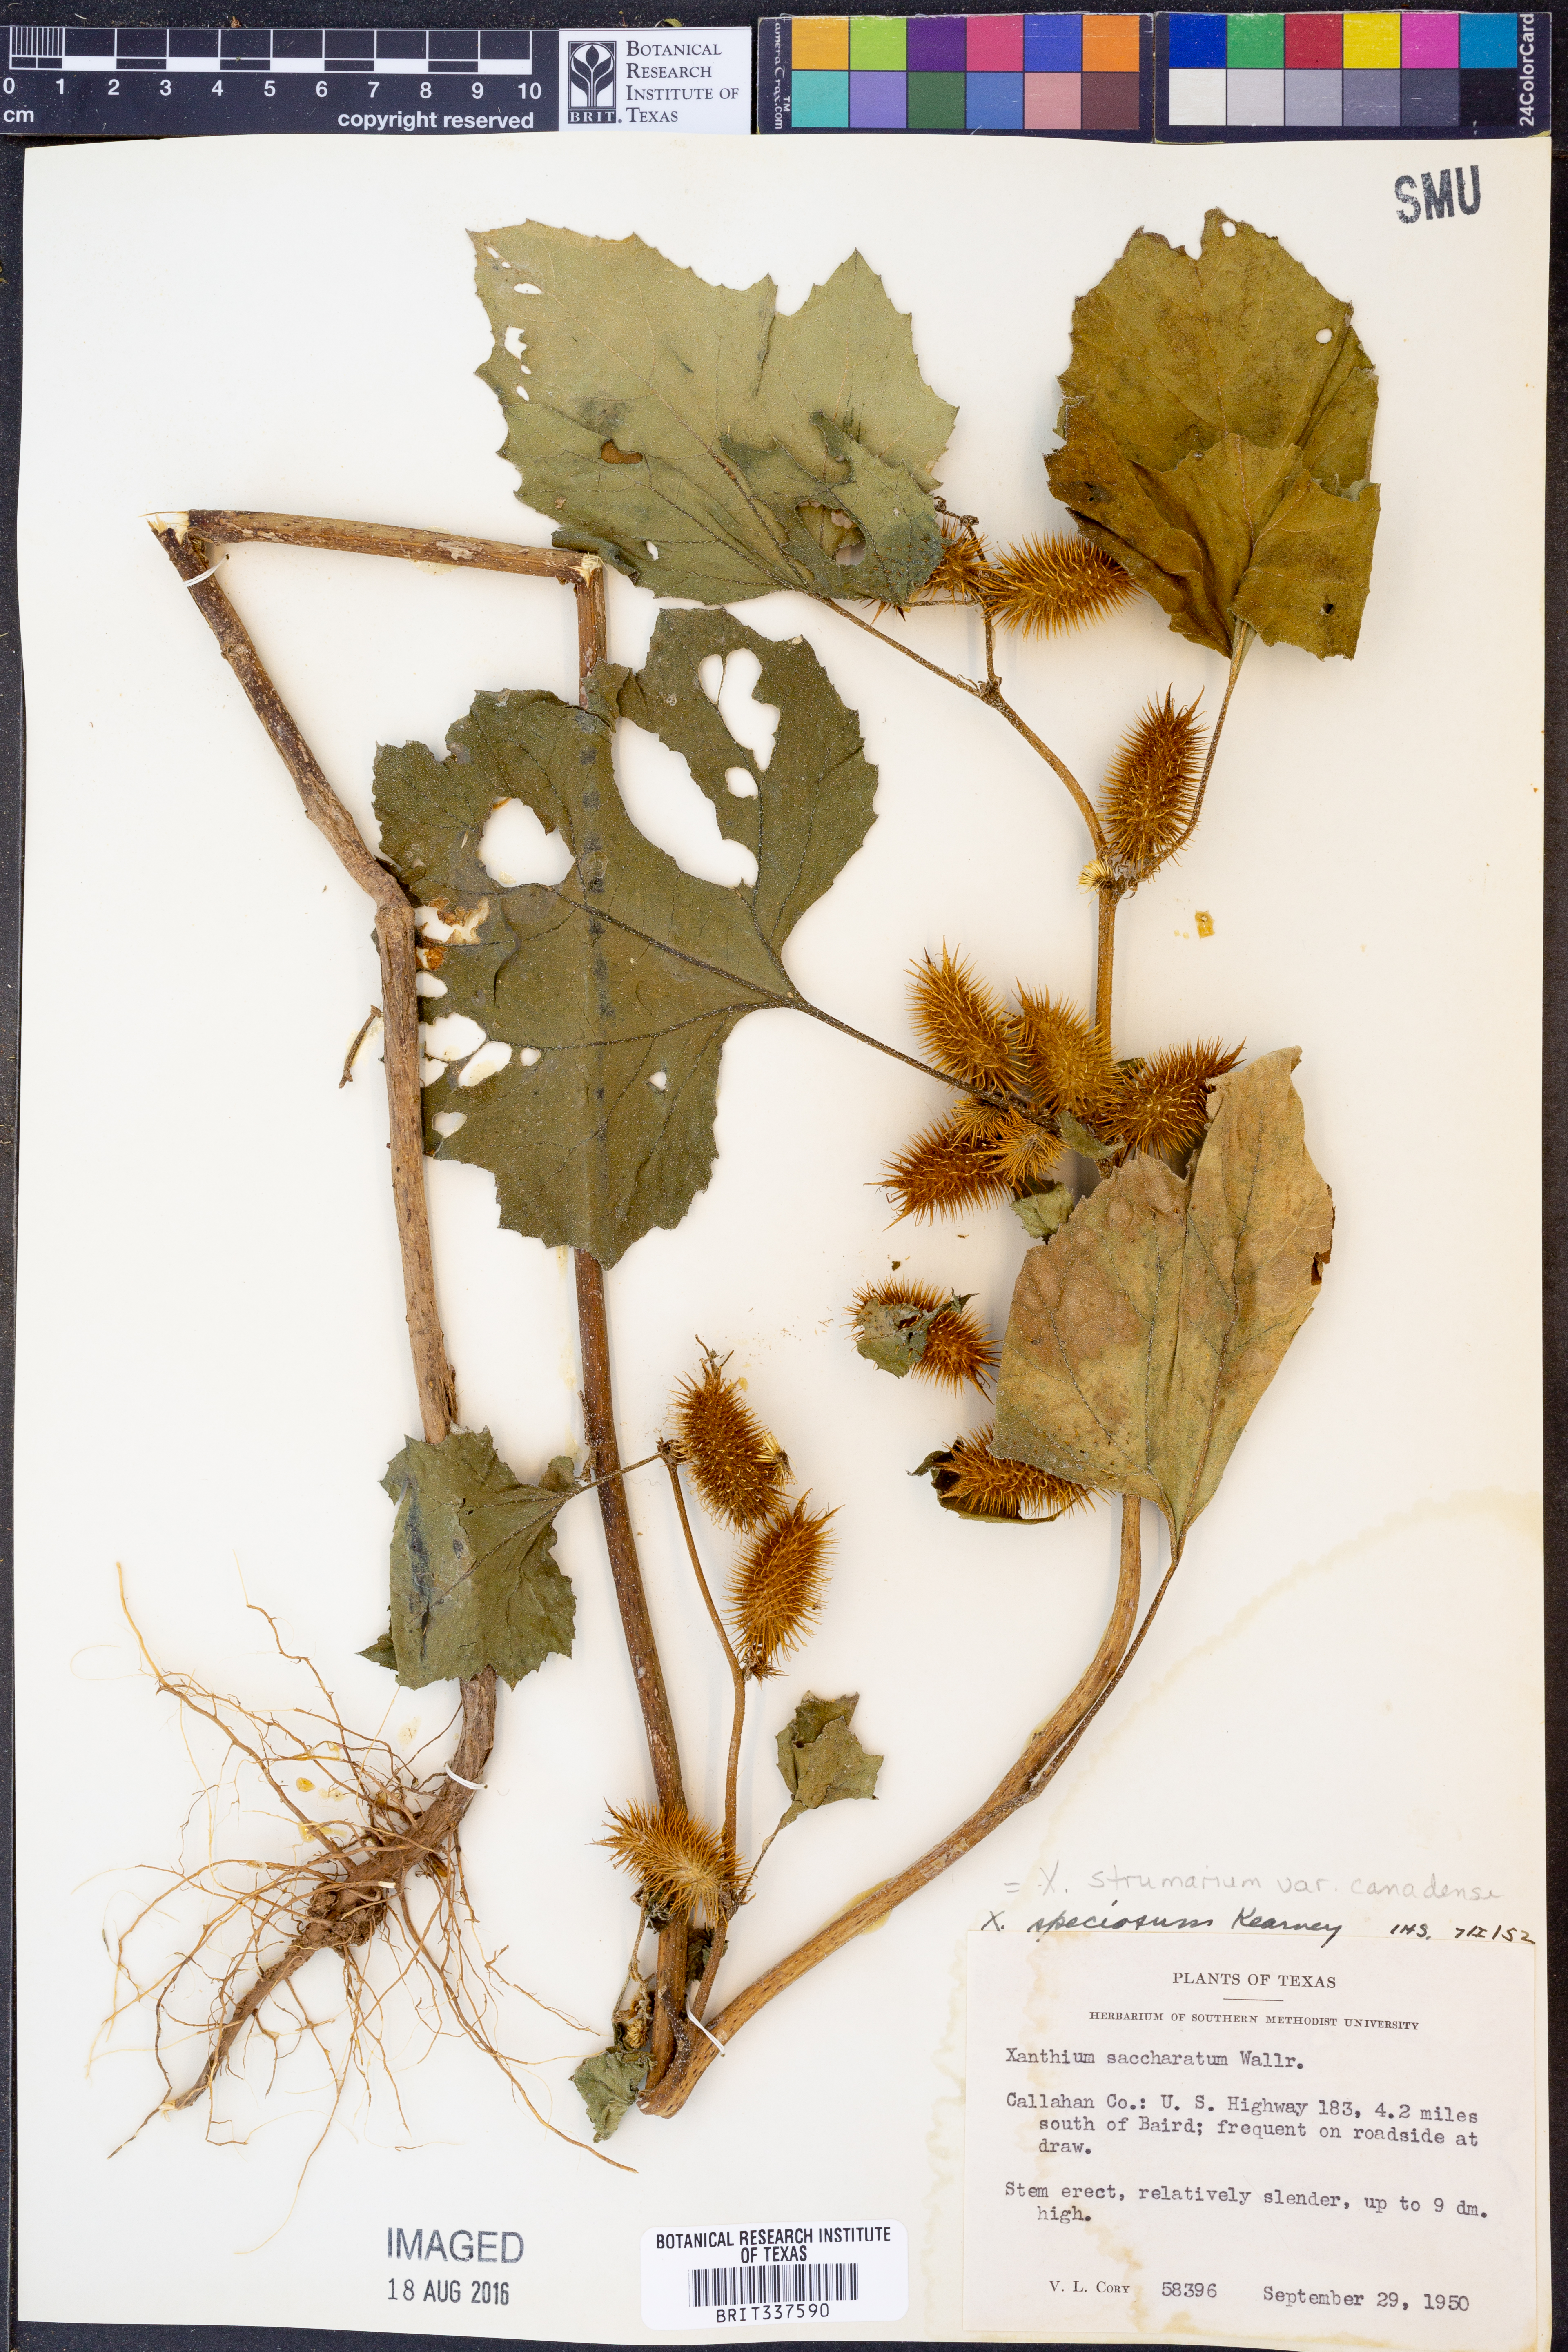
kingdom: Plantae
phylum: Tracheophyta
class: Magnoliopsida
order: Asterales
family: Asteraceae
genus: Xanthium
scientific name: Xanthium orientale
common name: Californian burr
